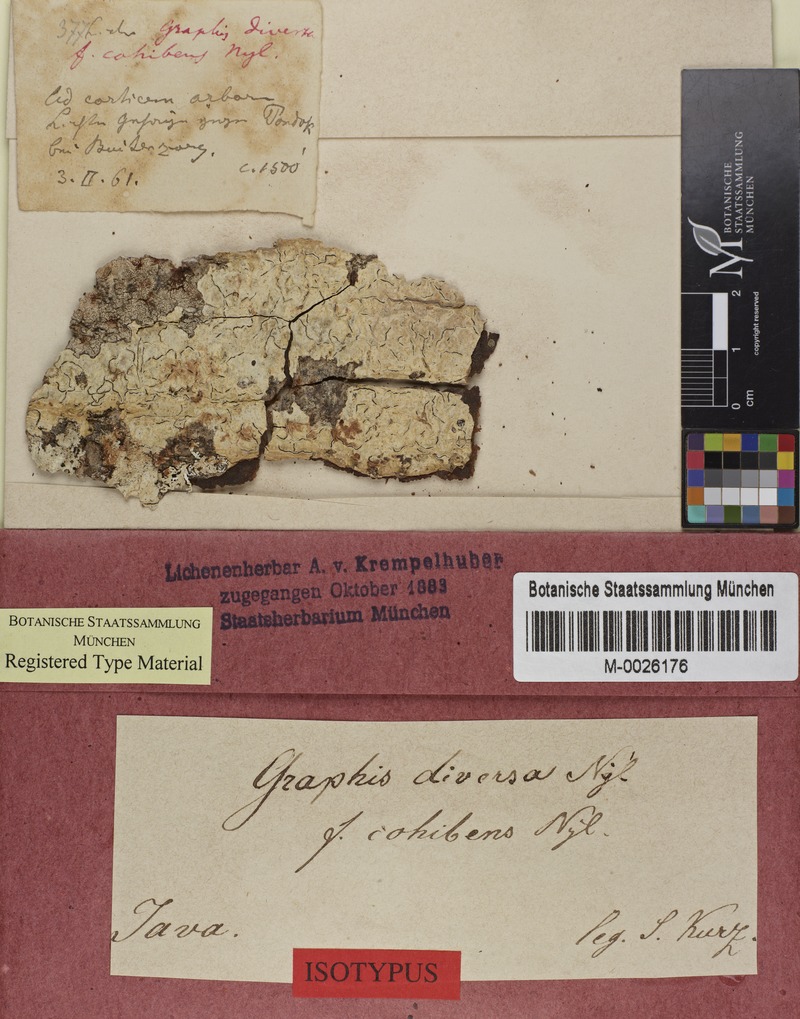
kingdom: Fungi
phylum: Ascomycota
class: Lecanoromycetes
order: Ostropales
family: Graphidaceae
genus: Phaeographis
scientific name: Phaeographis cohibens
